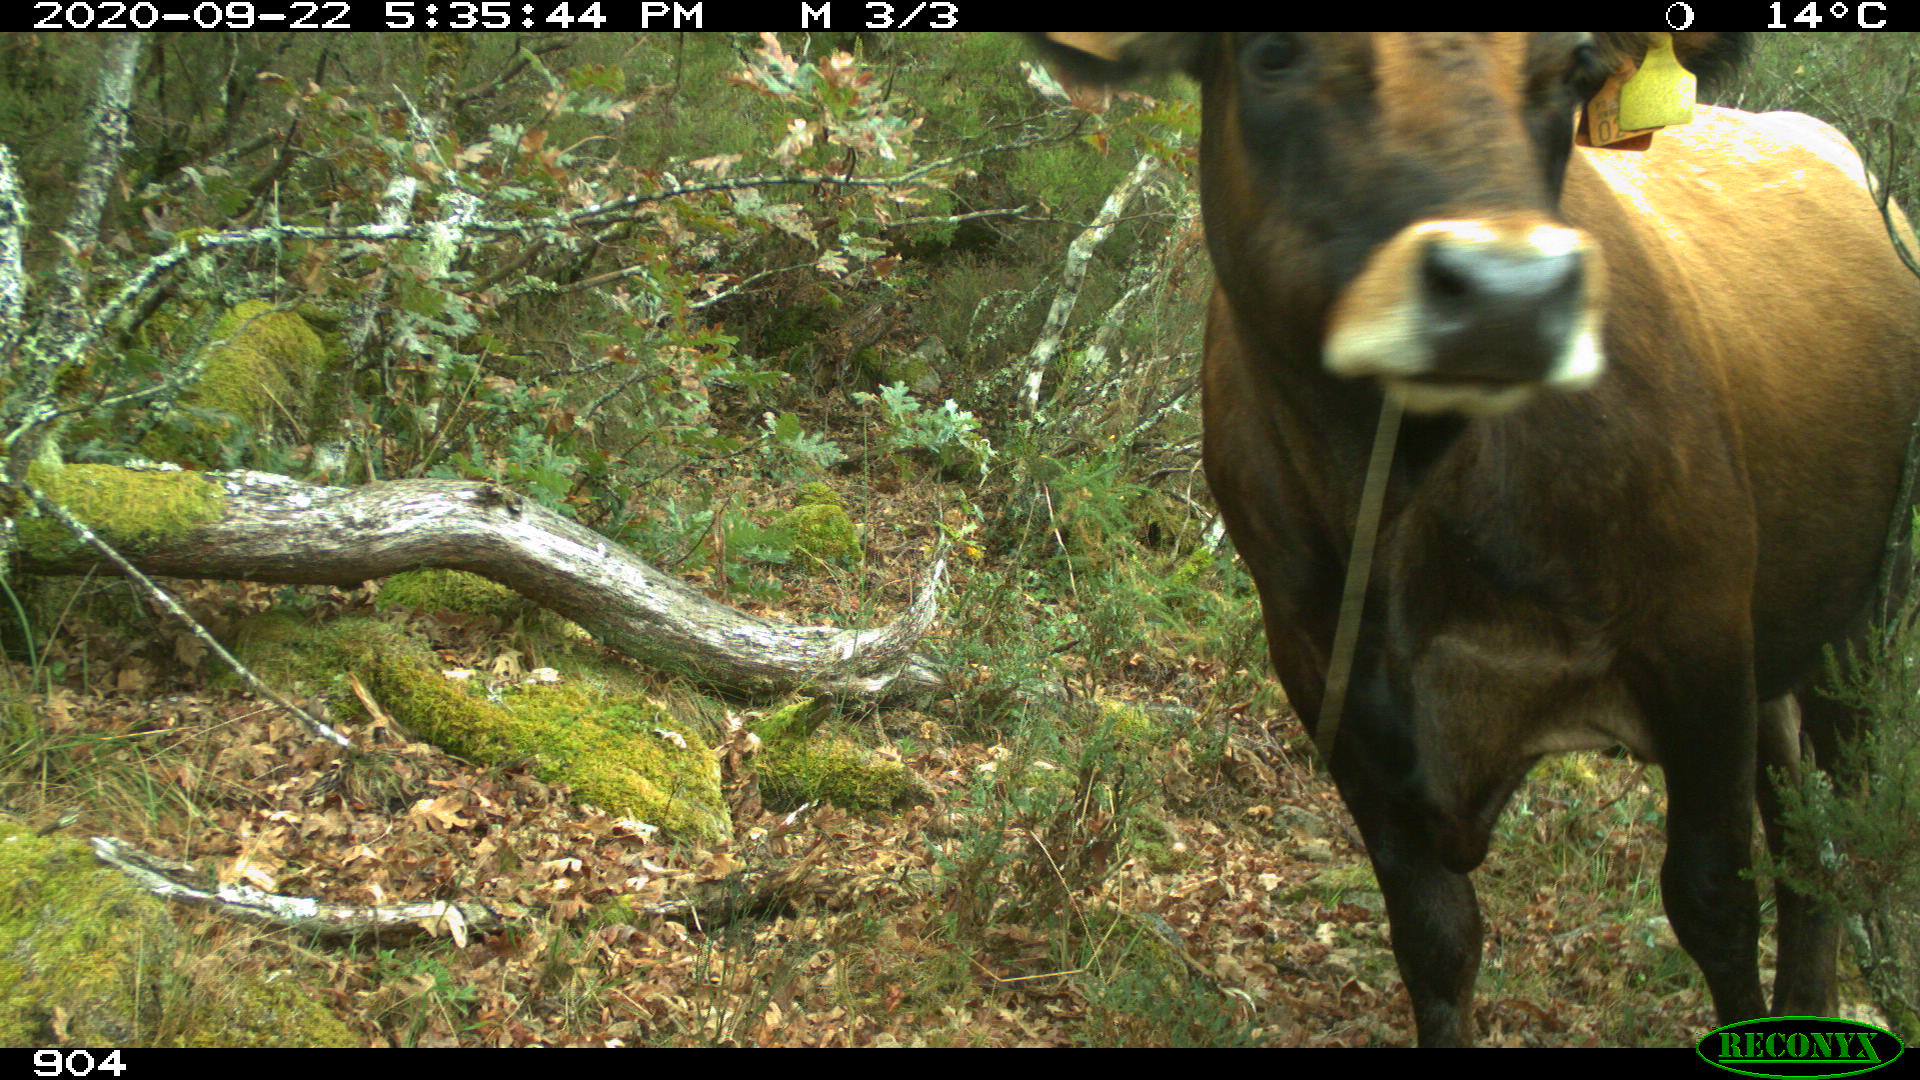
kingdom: Animalia
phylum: Chordata
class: Mammalia
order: Artiodactyla
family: Bovidae
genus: Bos
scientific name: Bos taurus
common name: Domesticated cattle
